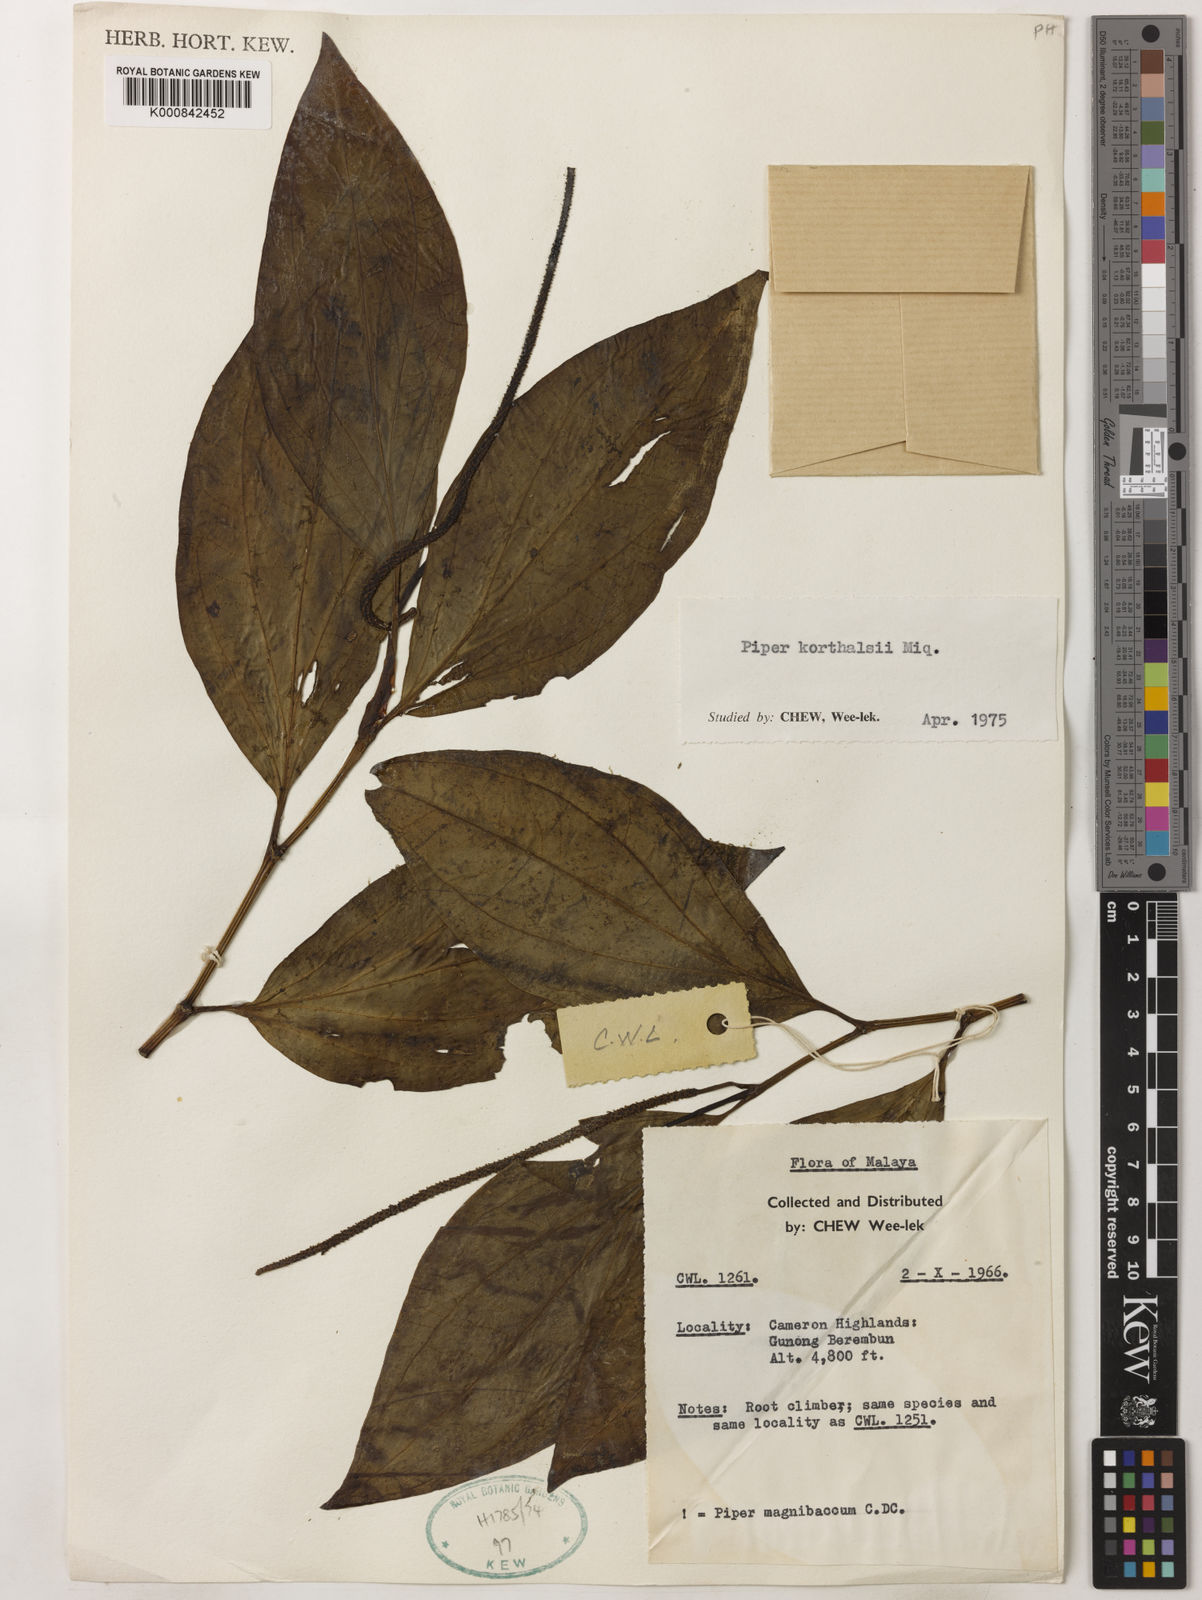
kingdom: Plantae
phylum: Tracheophyta
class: Magnoliopsida
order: Piperales
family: Piperaceae
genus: Piper
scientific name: Piper quinqueangulatum
